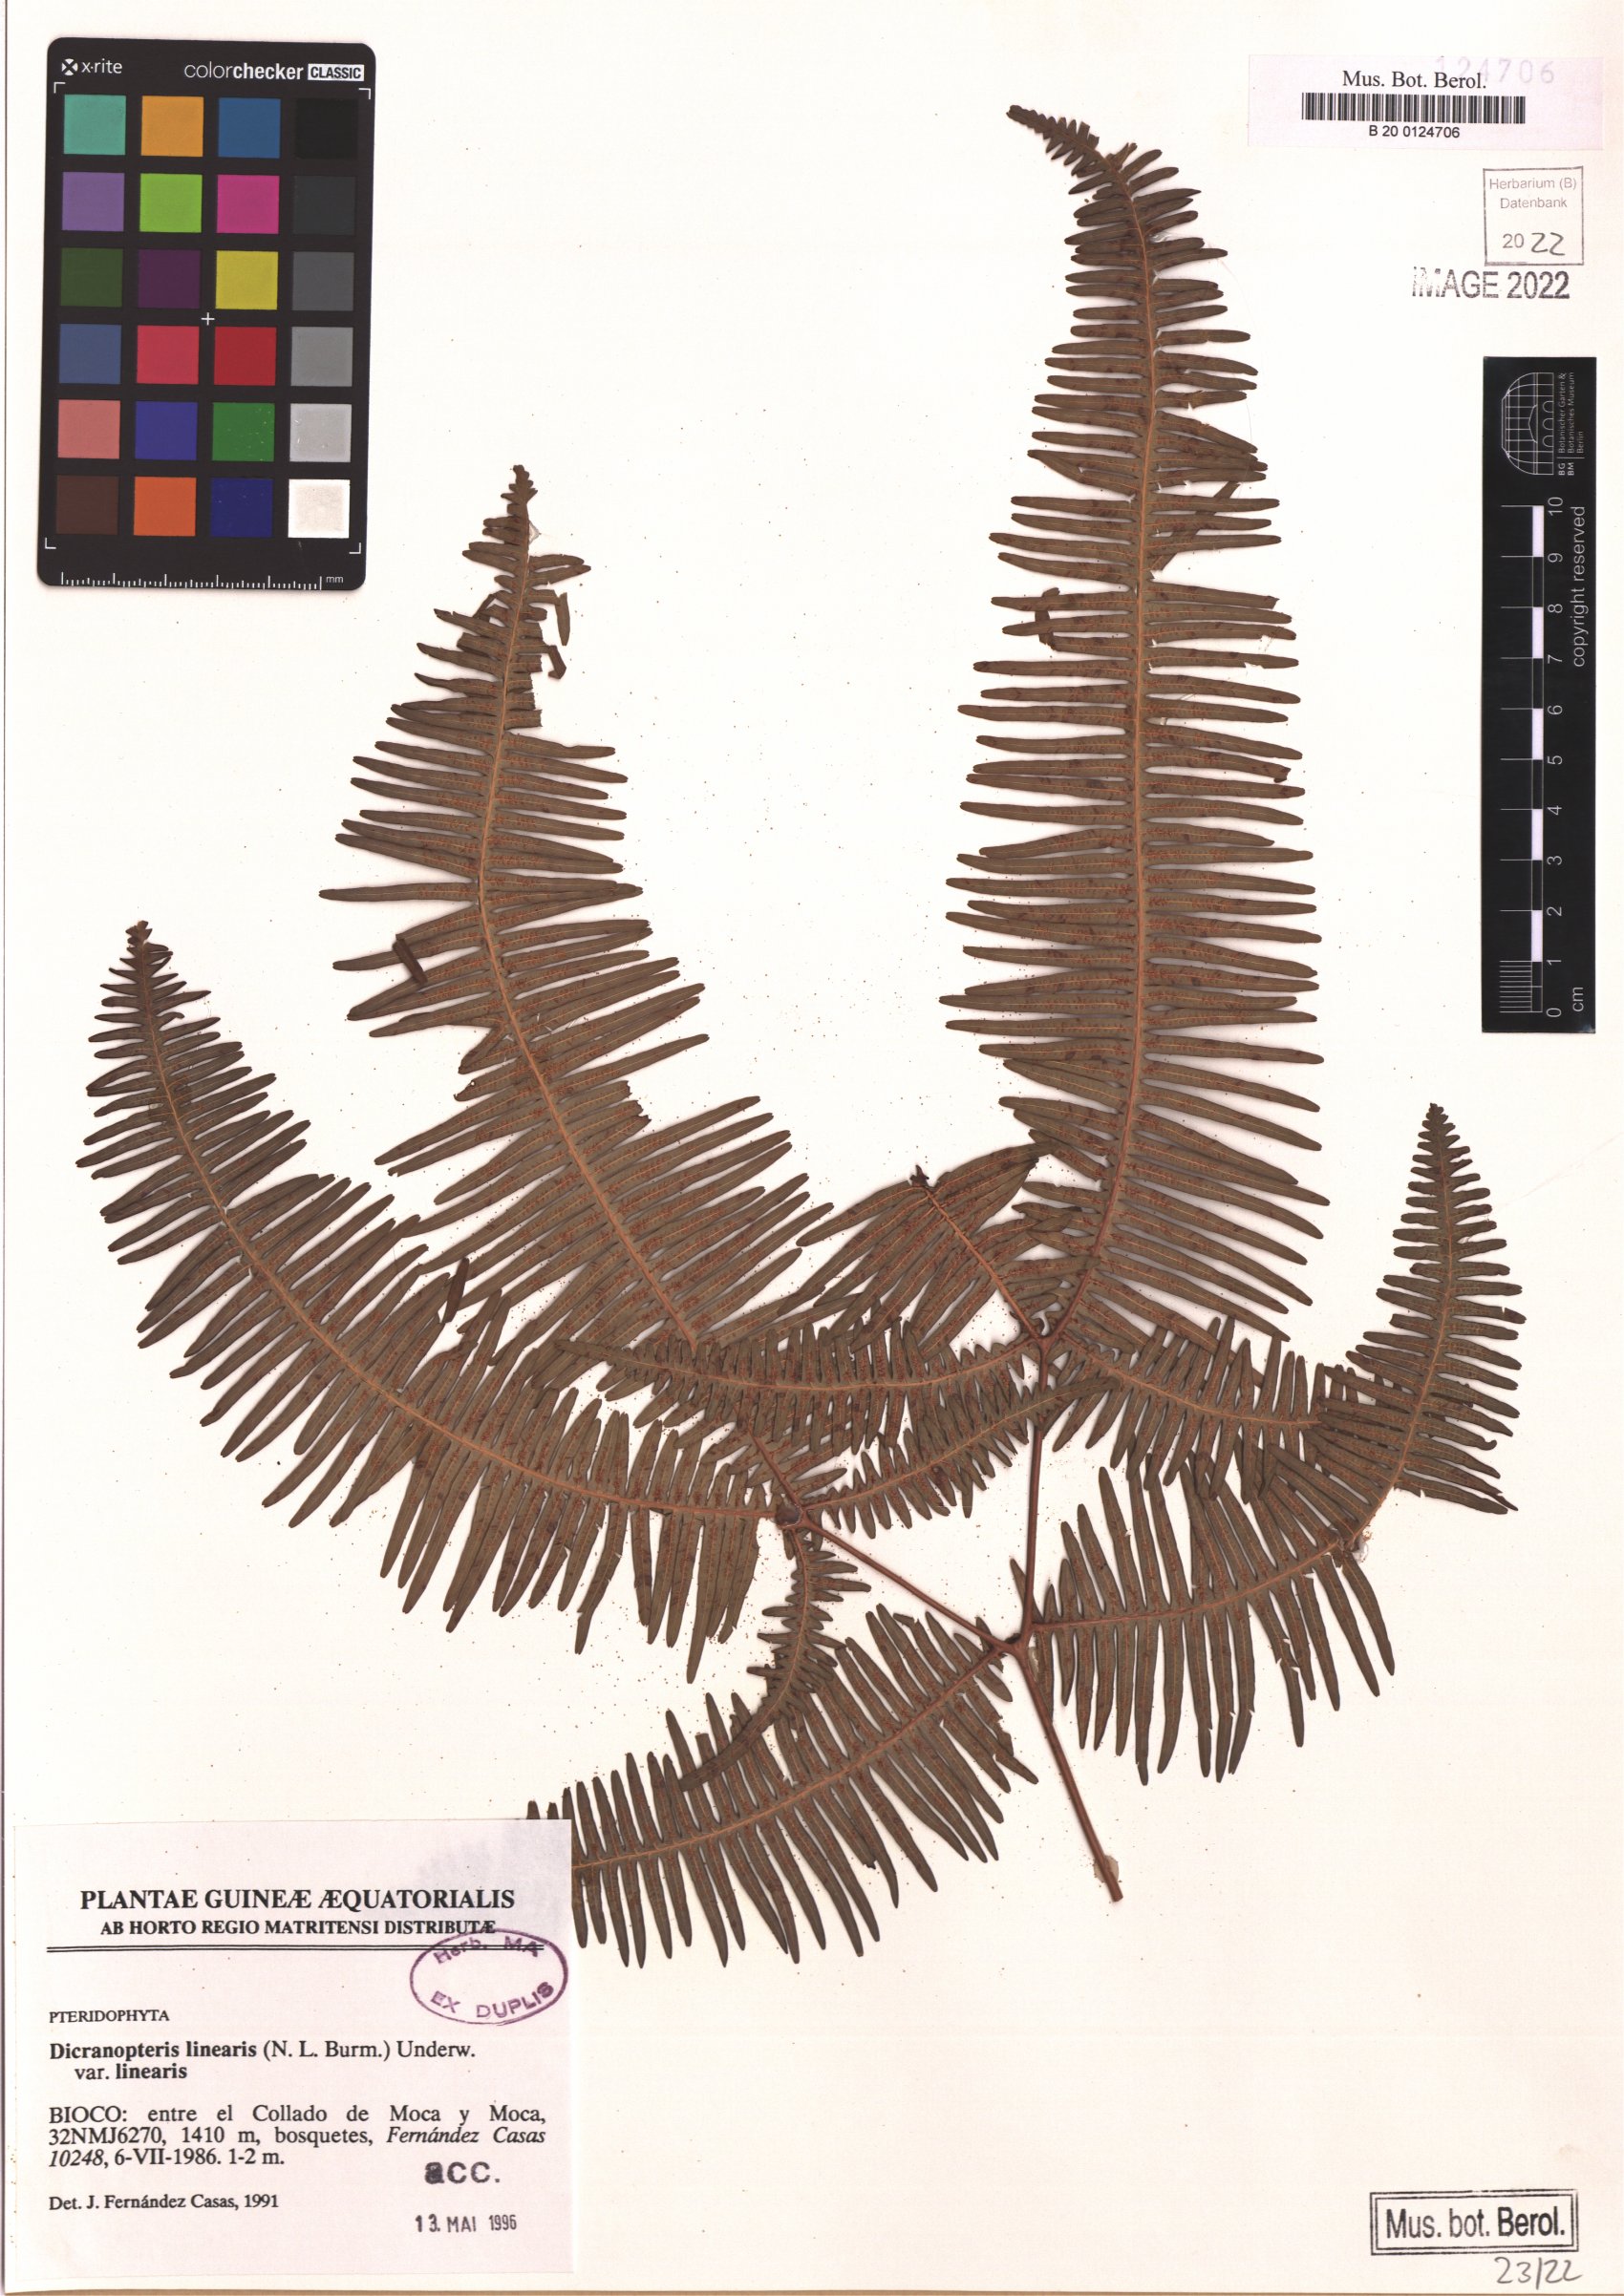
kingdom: Plantae
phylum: Tracheophyta
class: Polypodiopsida
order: Gleicheniales
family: Gleicheniaceae
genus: Dicranopteris
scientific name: Dicranopteris linearis
